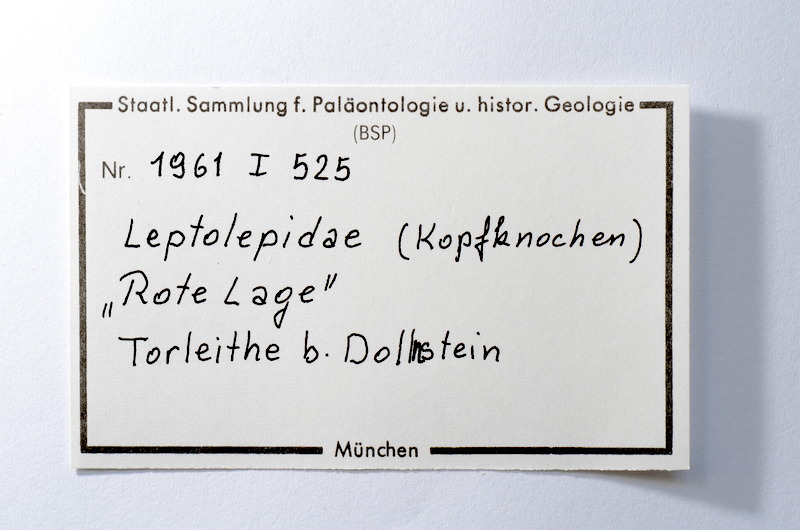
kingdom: Animalia
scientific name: Animalia
